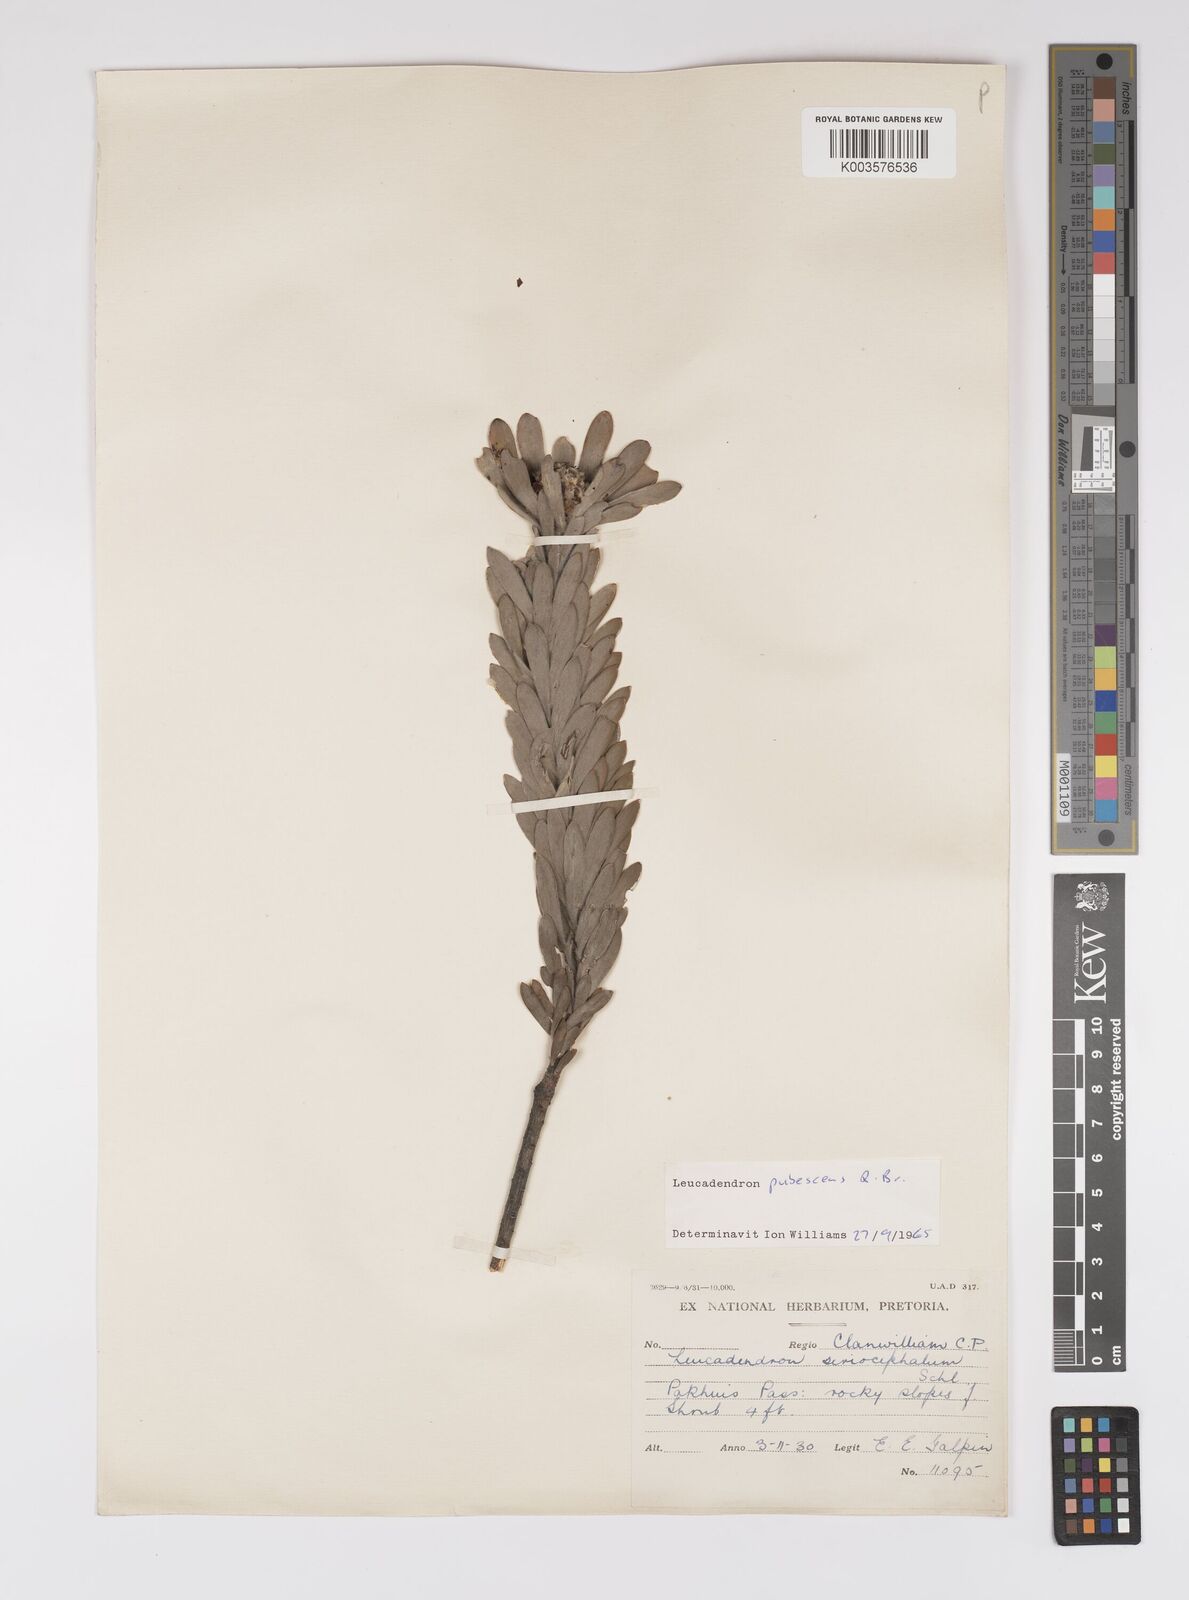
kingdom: Plantae
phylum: Tracheophyta
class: Magnoliopsida
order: Proteales
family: Proteaceae
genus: Leucadendron
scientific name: Leucadendron pubescens
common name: Grey conebush
